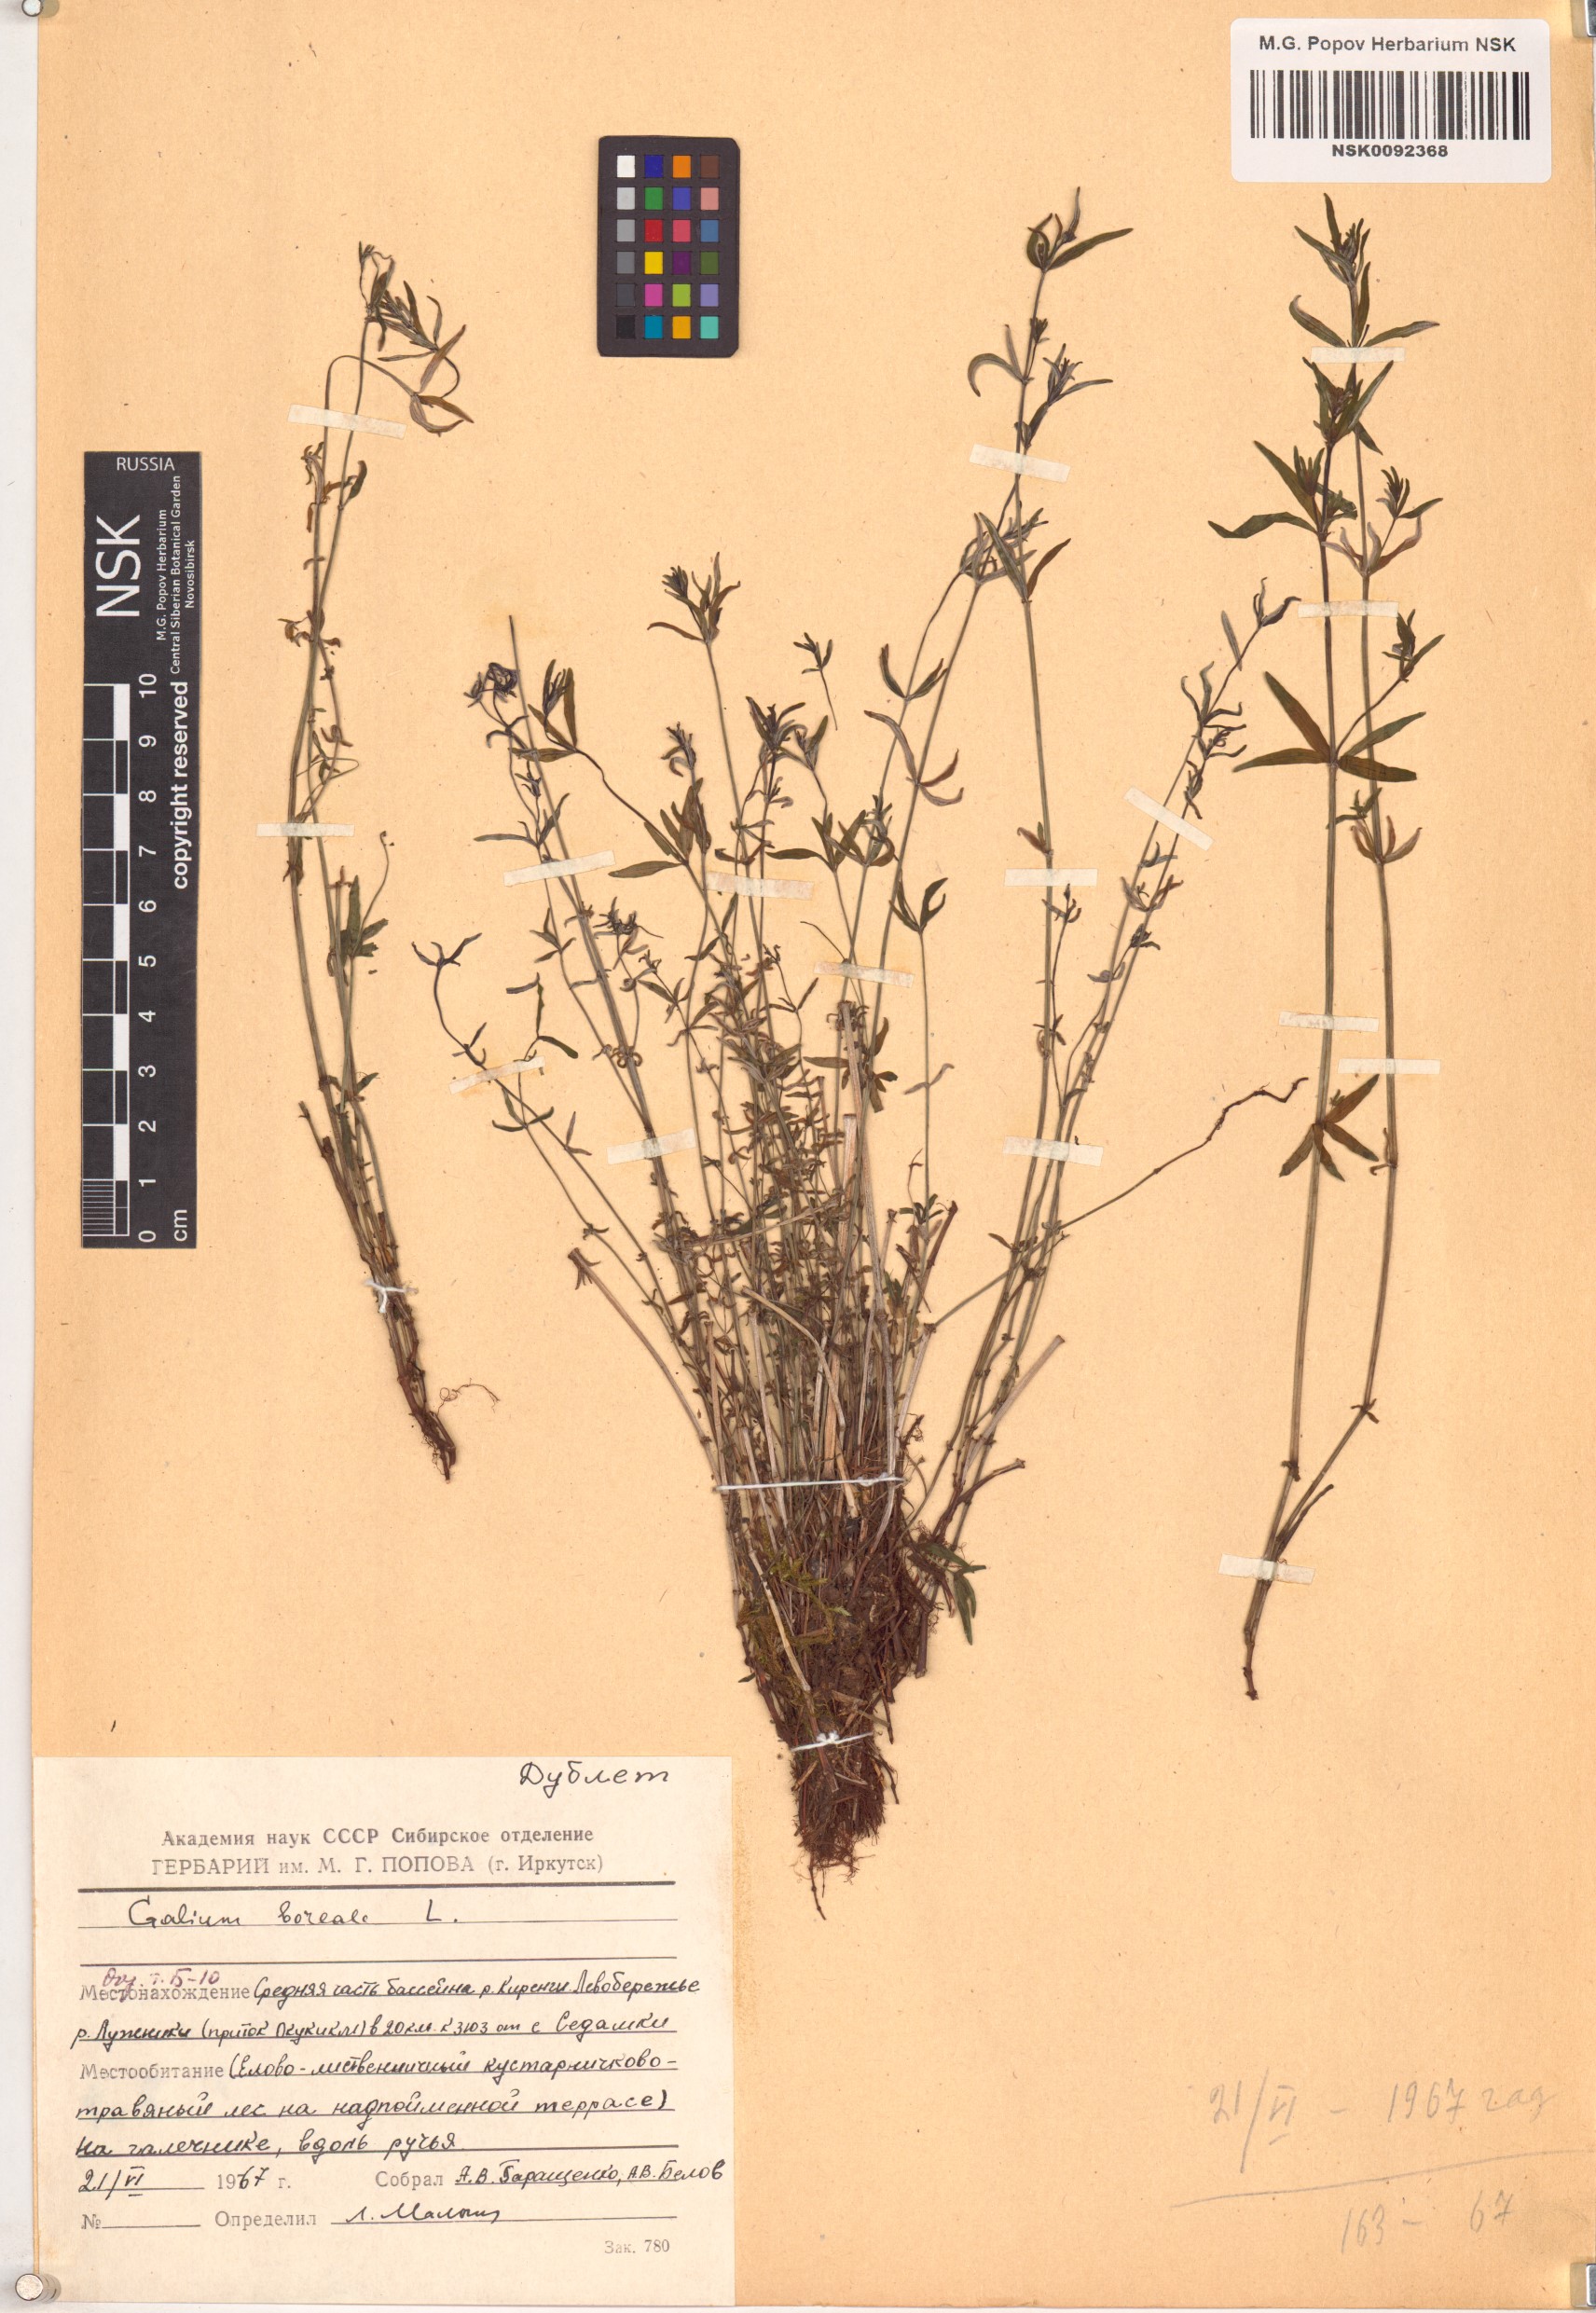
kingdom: Plantae
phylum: Tracheophyta
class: Magnoliopsida
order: Gentianales
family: Rubiaceae
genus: Galium
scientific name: Galium boreale
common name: Northern bedstraw
